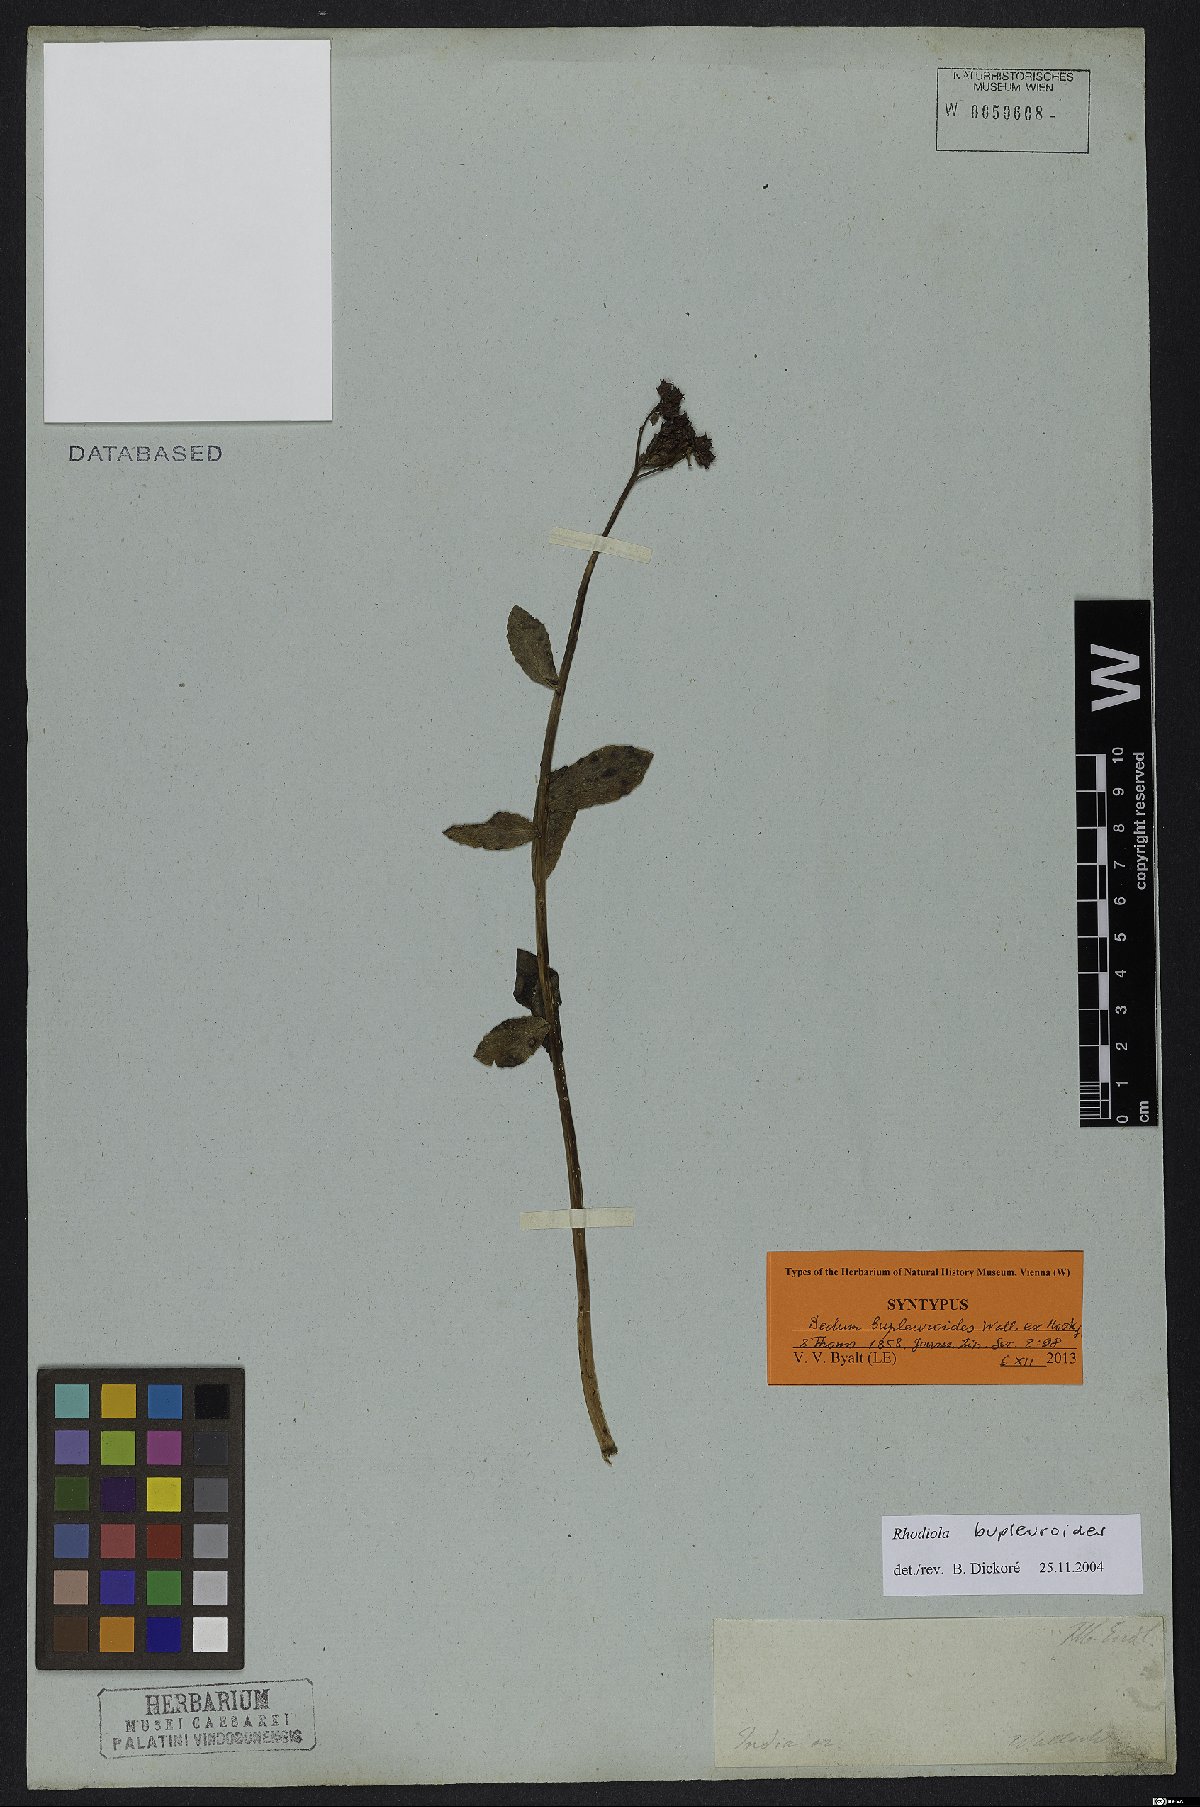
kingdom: Plantae
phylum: Tracheophyta
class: Magnoliopsida
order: Saxifragales
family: Crassulaceae
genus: Rhodiola
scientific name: Rhodiola bupleuroides
